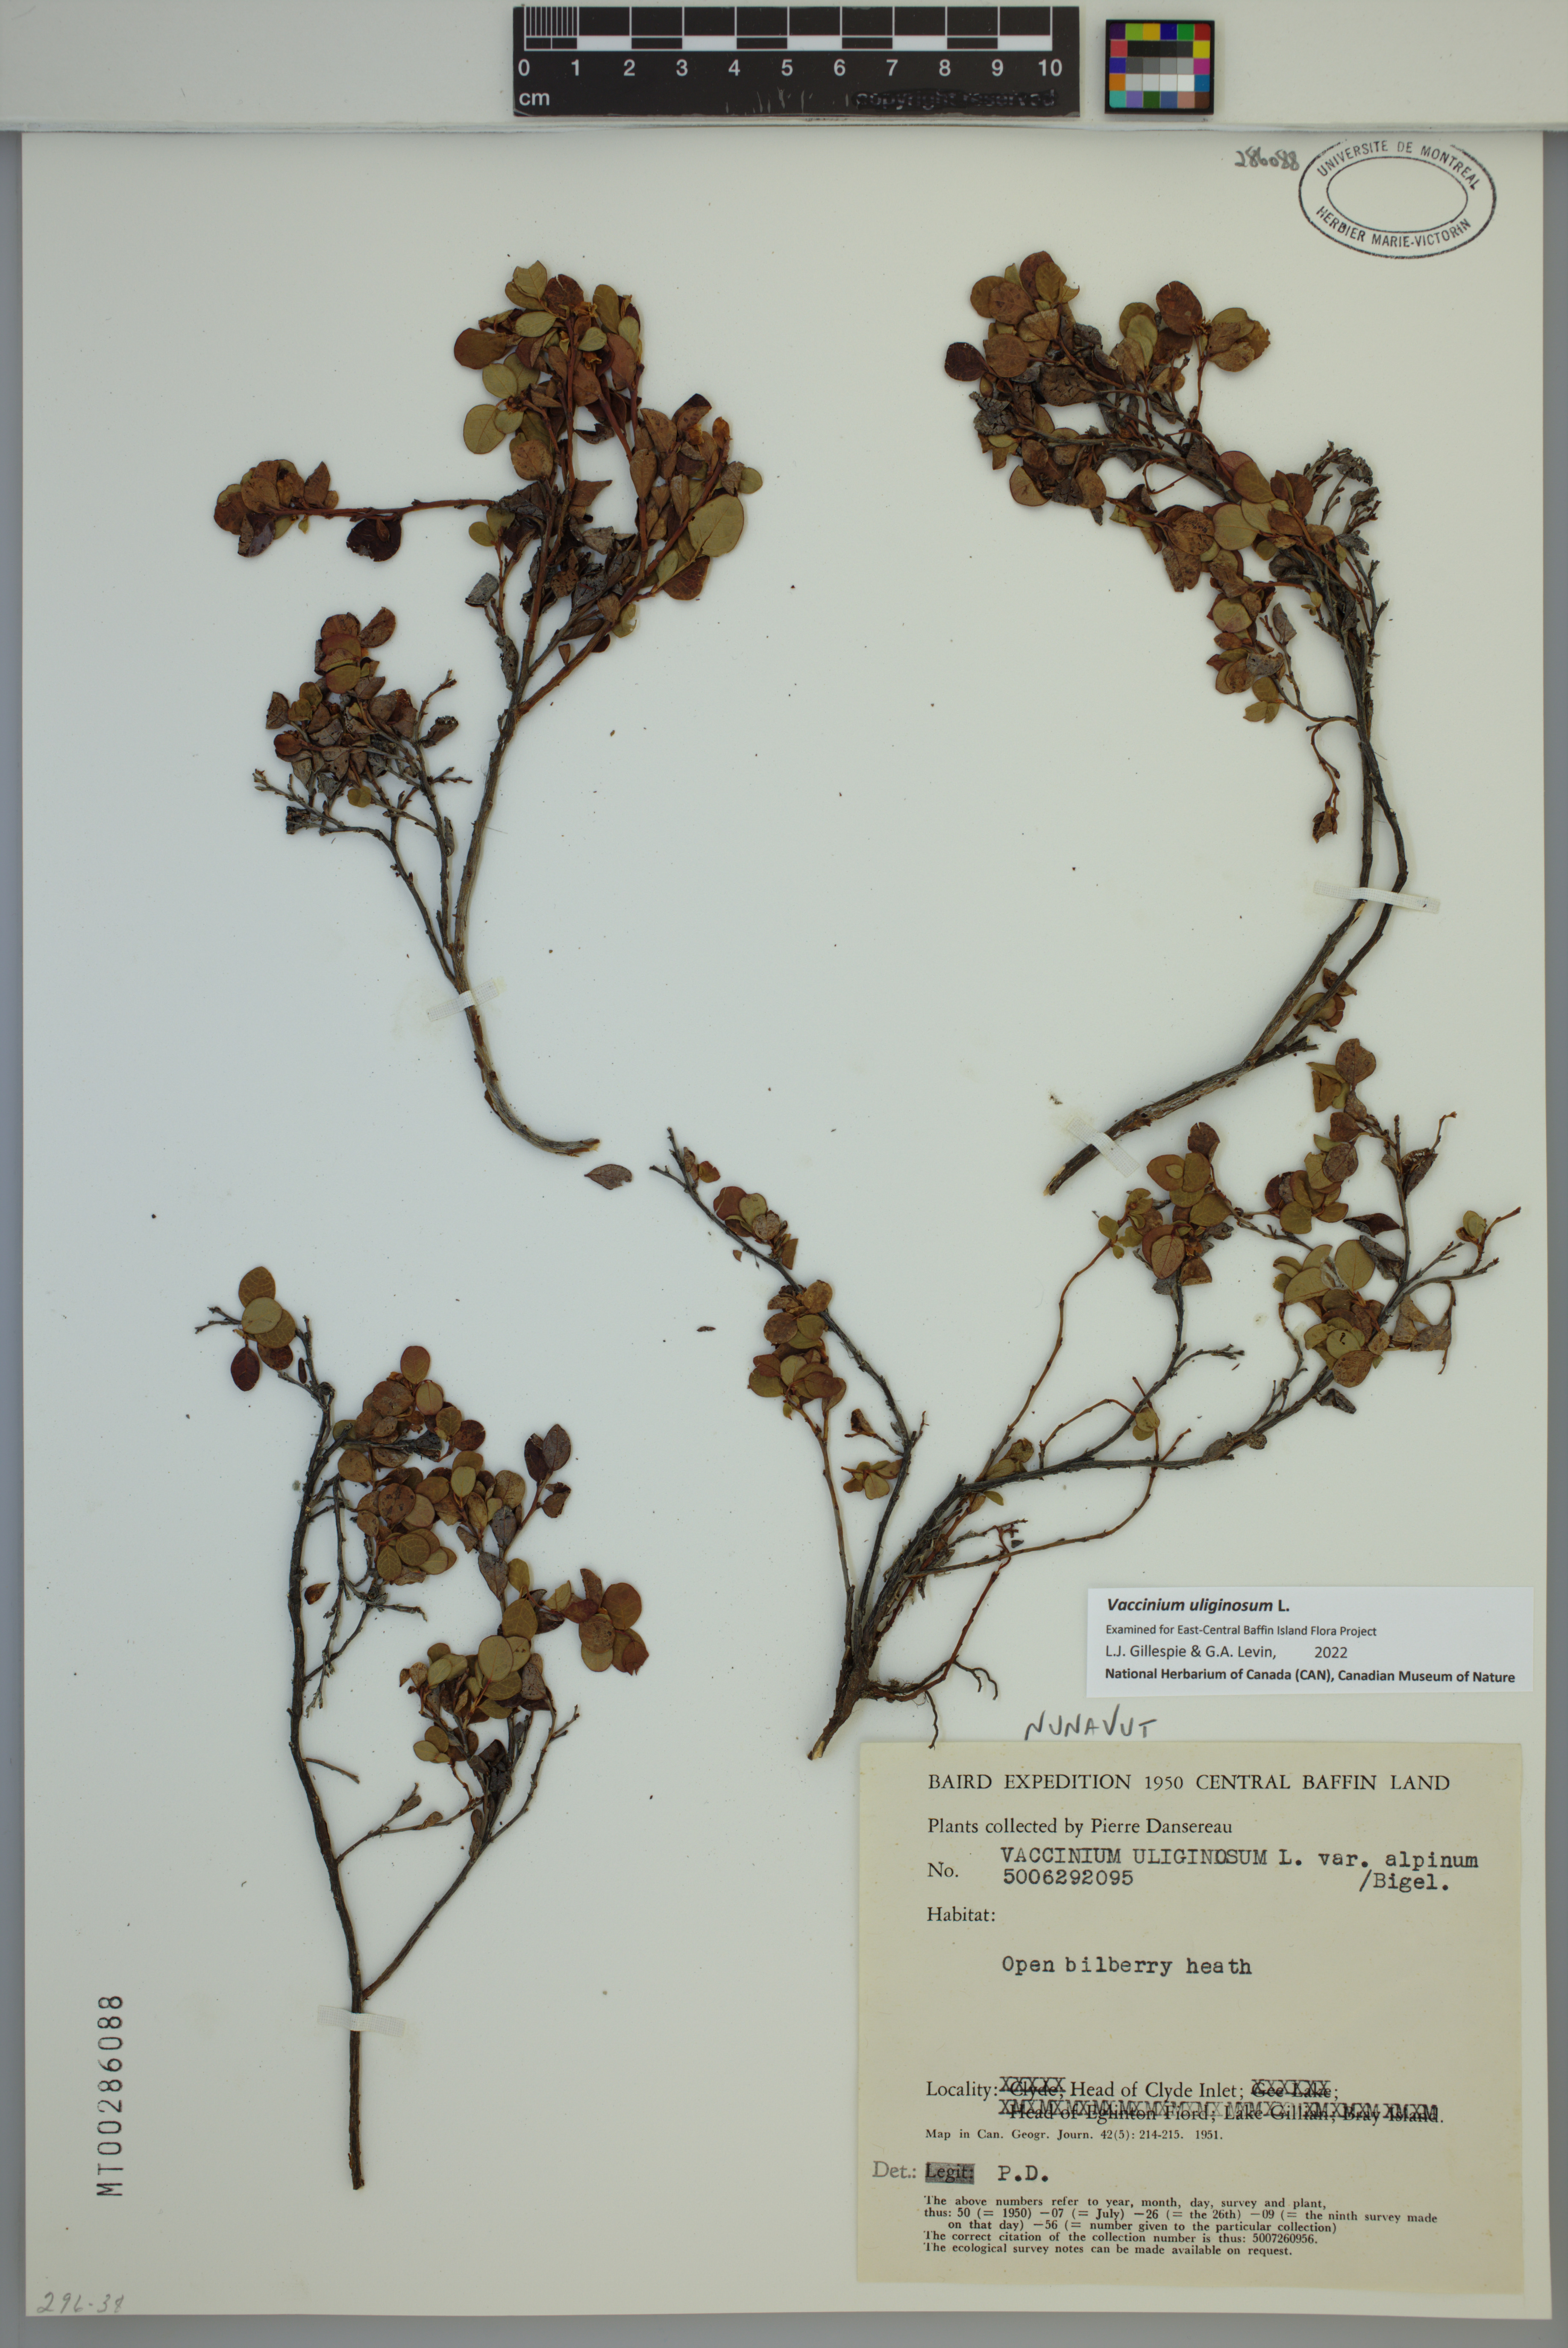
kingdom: Plantae
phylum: Tracheophyta
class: Magnoliopsida
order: Ericales
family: Ericaceae
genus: Vaccinium
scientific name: Vaccinium uliginosum
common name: Bog bilberry
